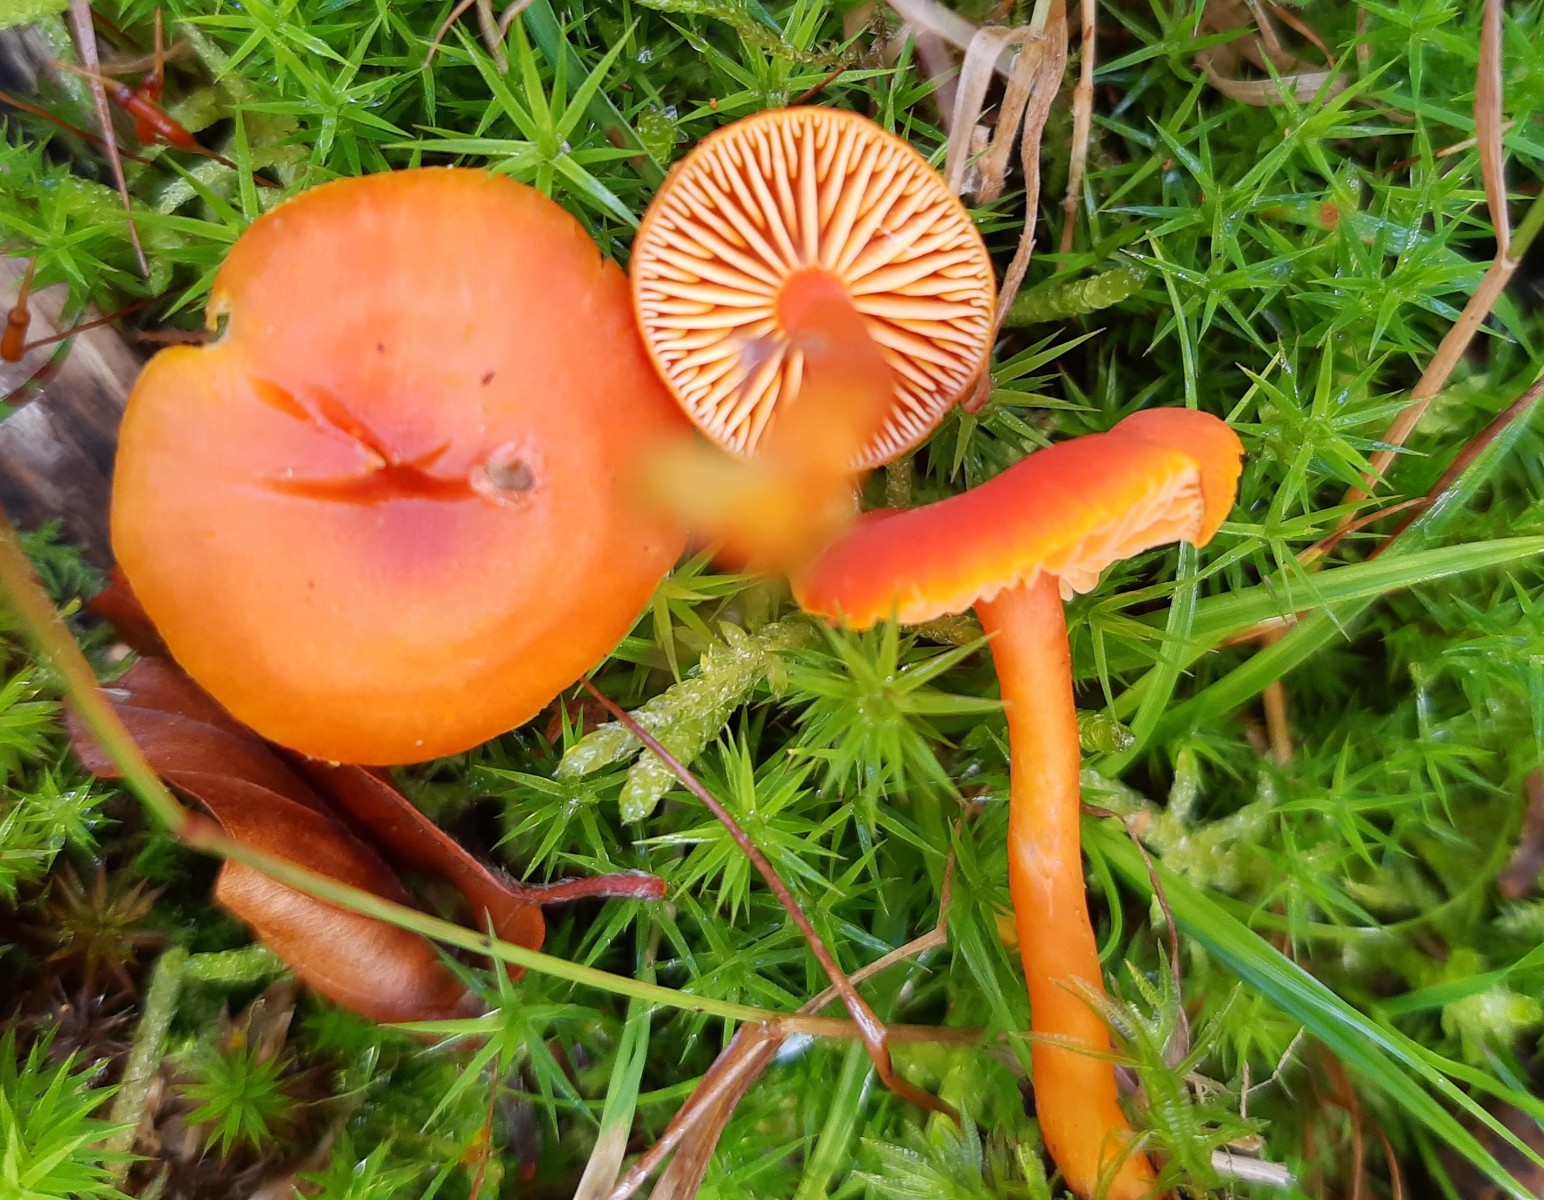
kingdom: Fungi
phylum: Basidiomycota
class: Agaricomycetes
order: Agaricales
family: Hygrophoraceae
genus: Hygrocybe
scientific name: Hygrocybe miniata
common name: mønje-vokshat
